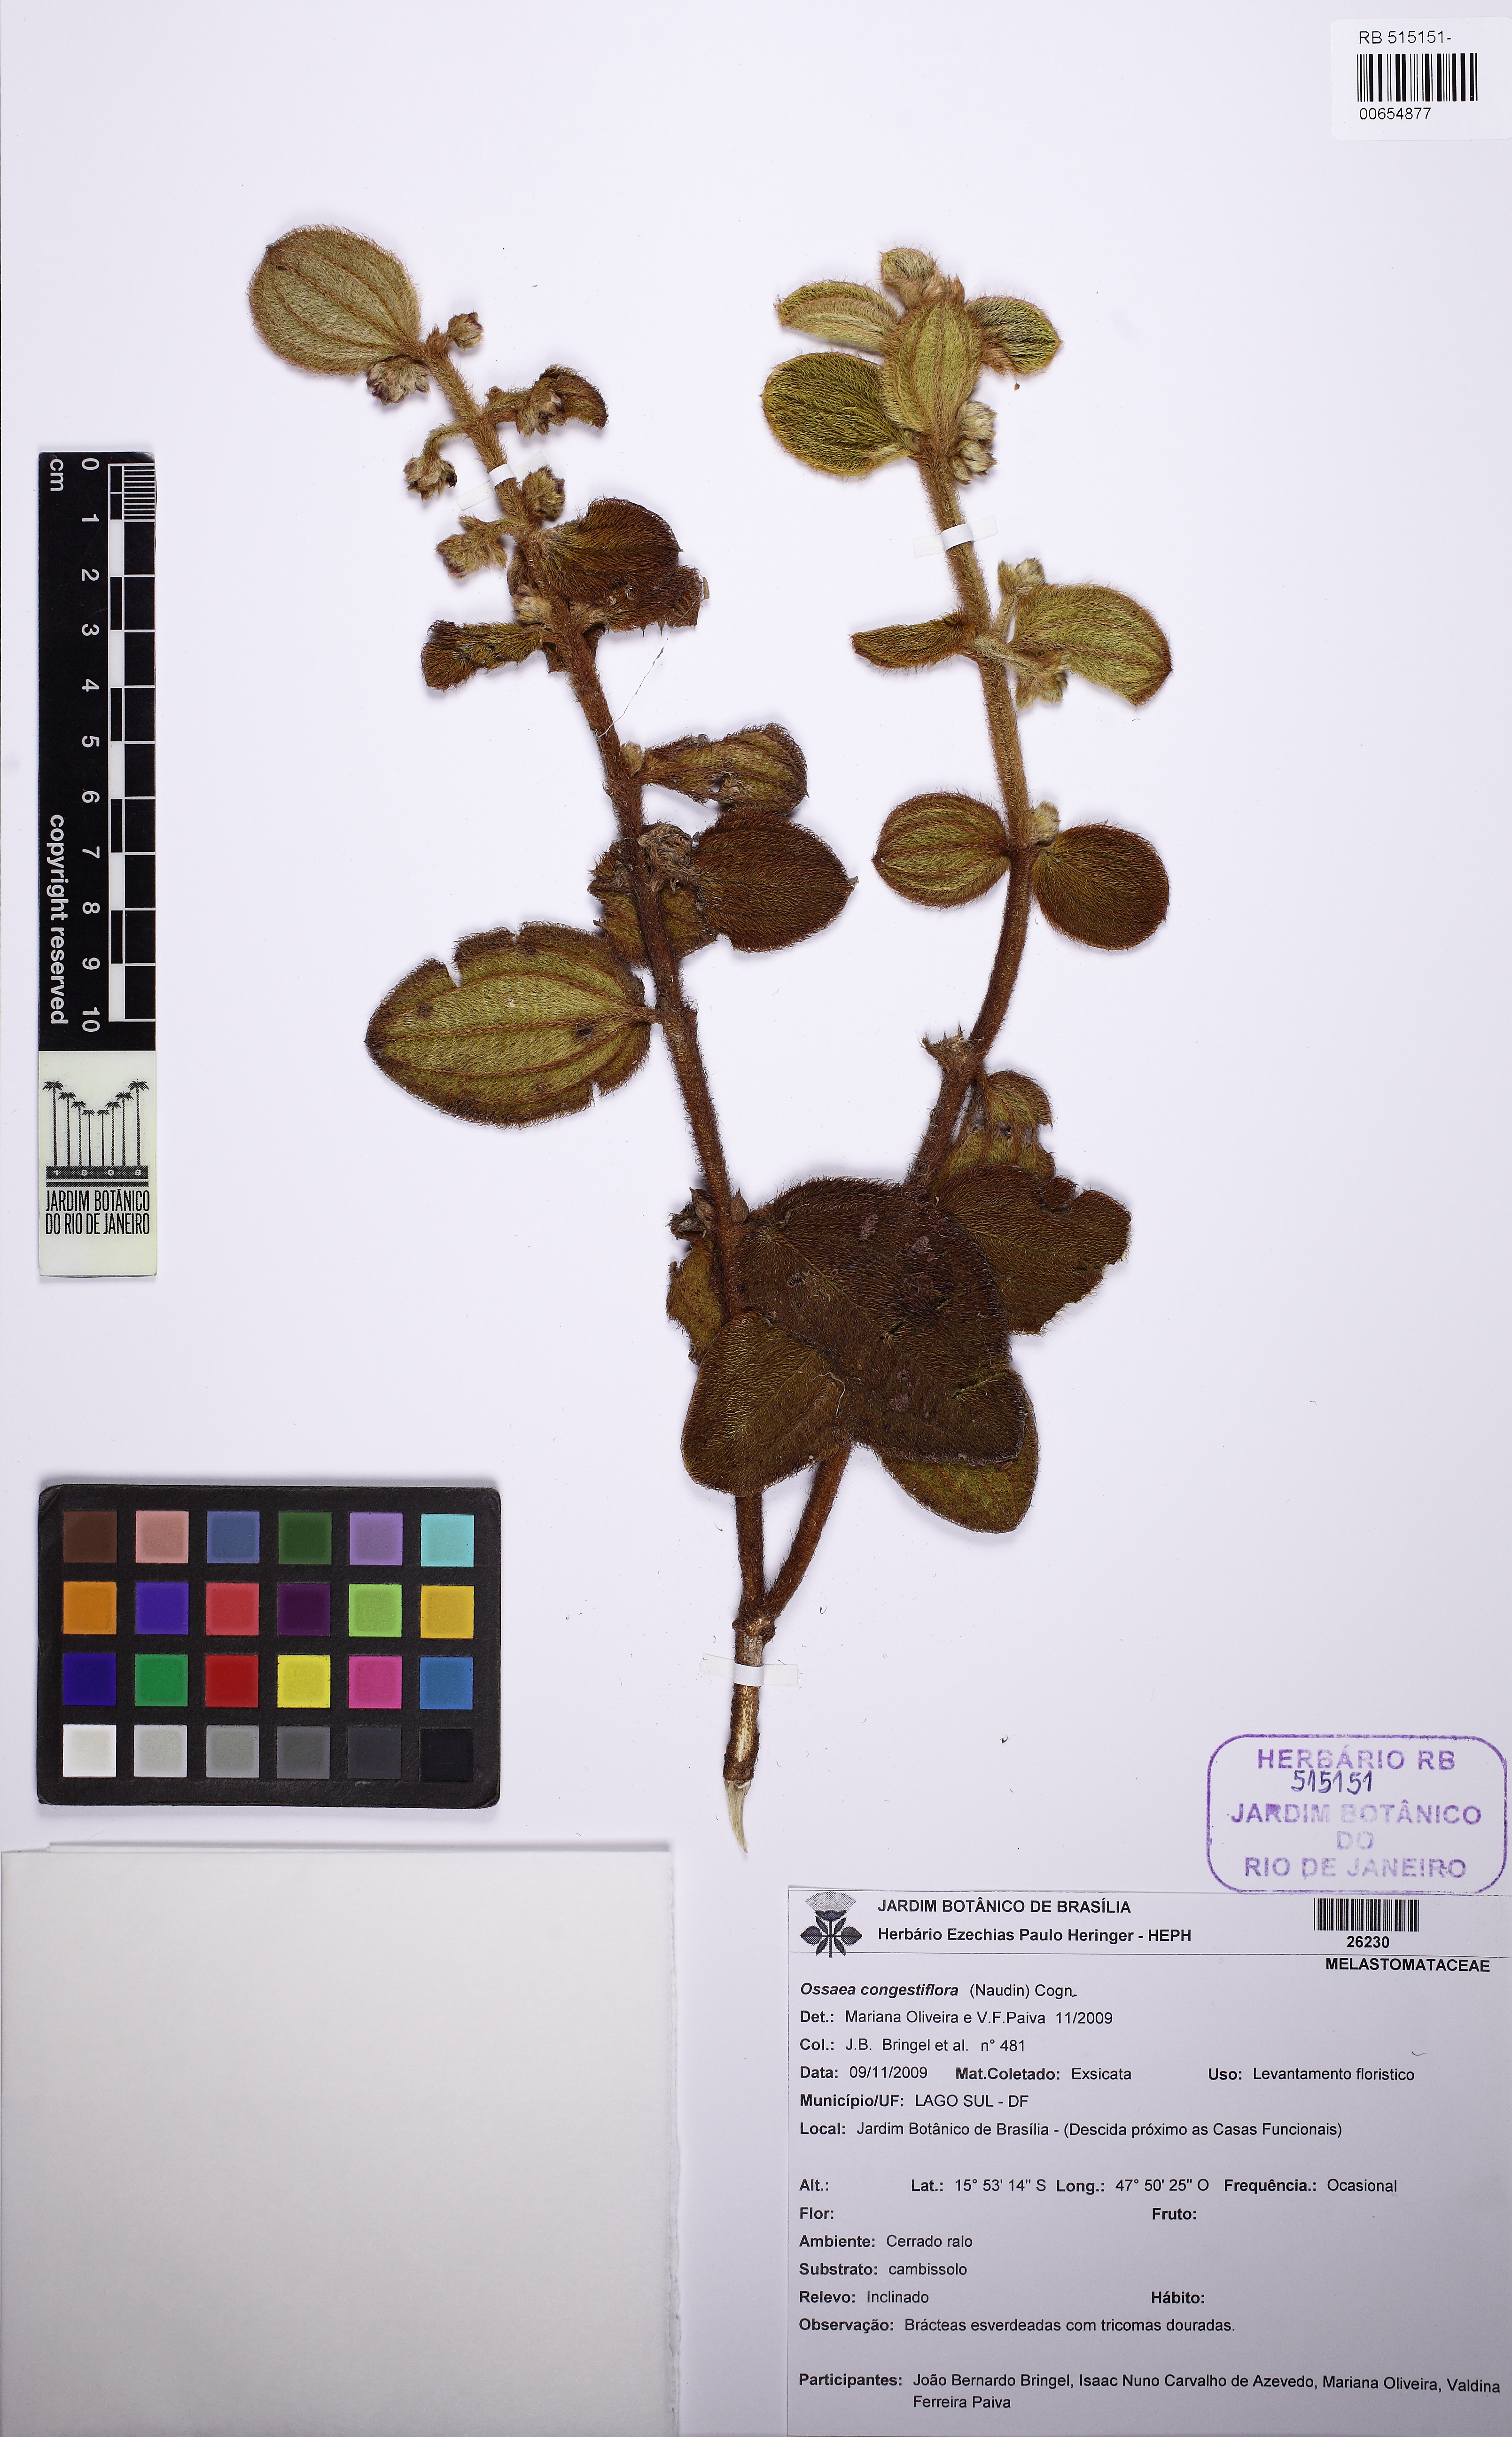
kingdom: Plantae
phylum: Tracheophyta
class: Magnoliopsida
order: Myrtales
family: Melastomataceae
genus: Miconia
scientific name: Miconia leacongestiflora
